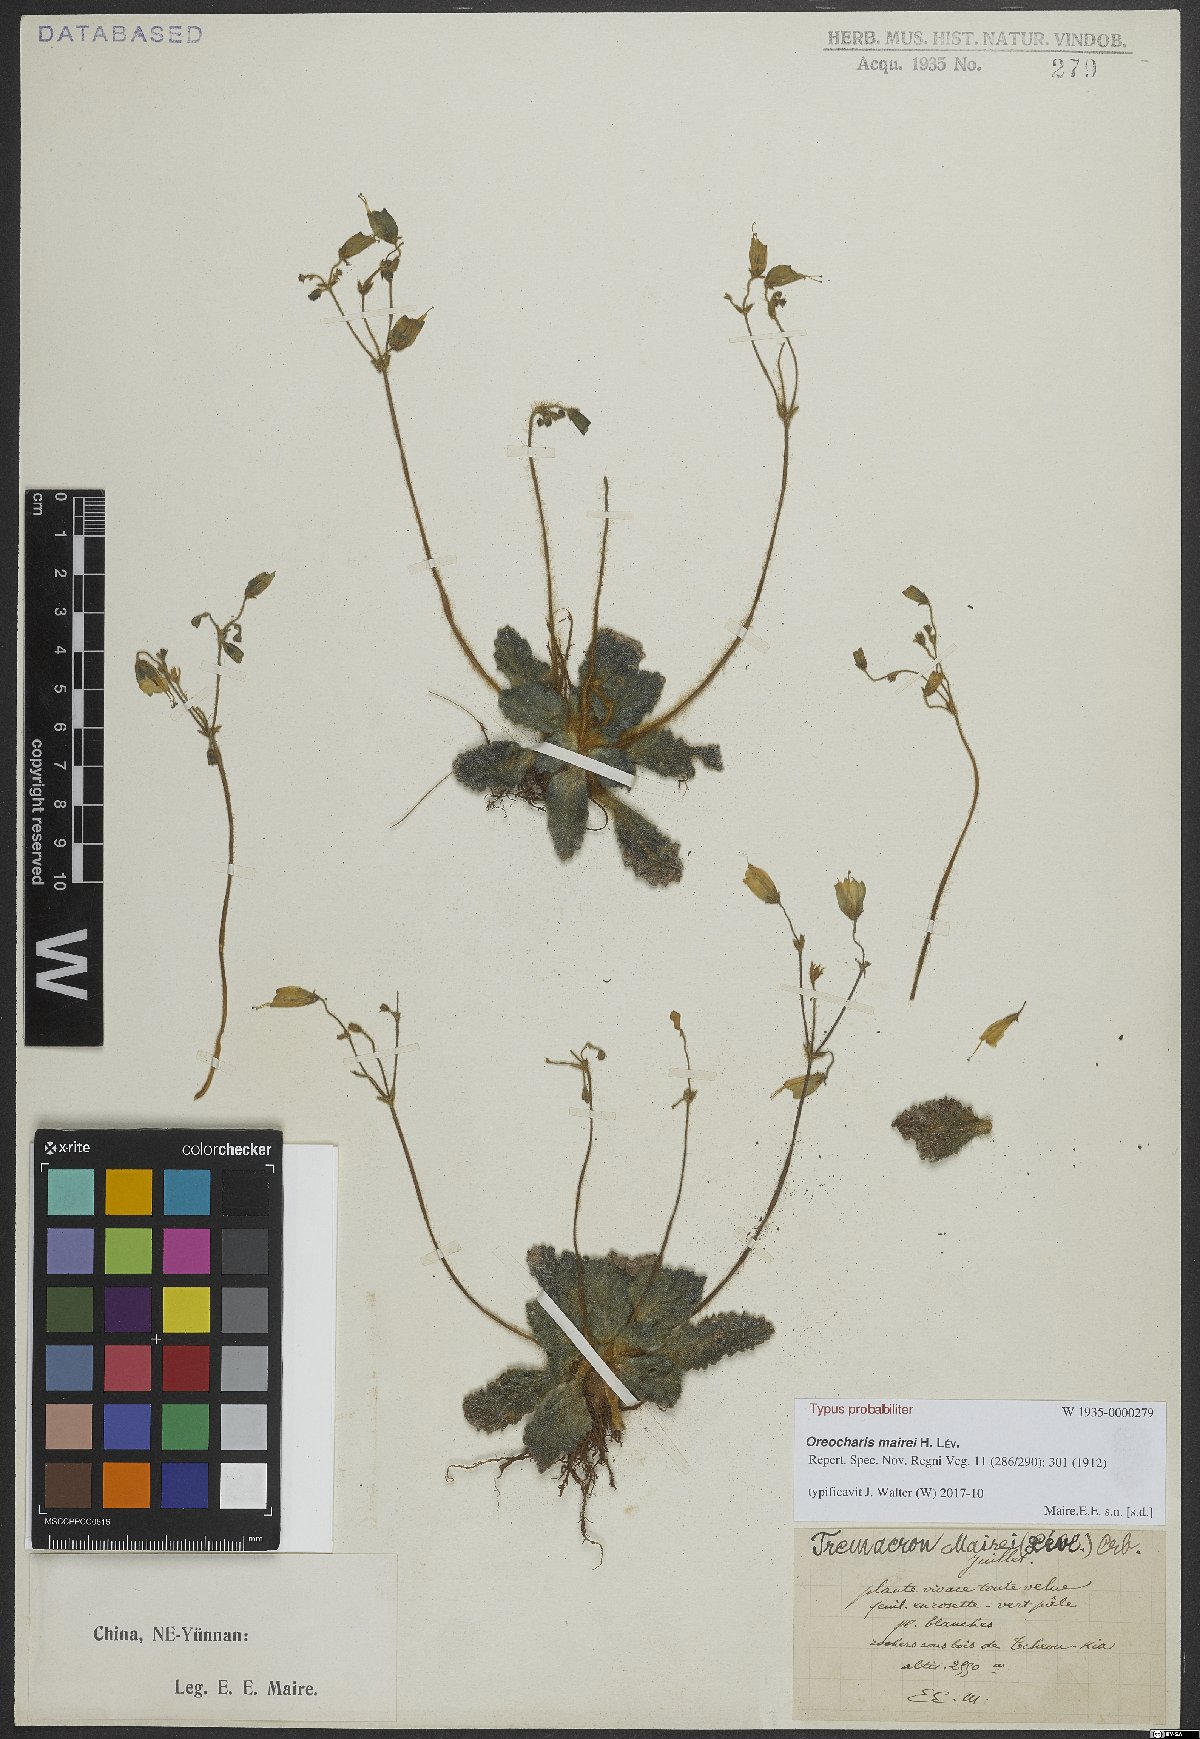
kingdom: Plantae
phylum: Tracheophyta
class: Magnoliopsida
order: Lamiales
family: Gesneriaceae
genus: Oreocharis
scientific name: Oreocharis mairei
